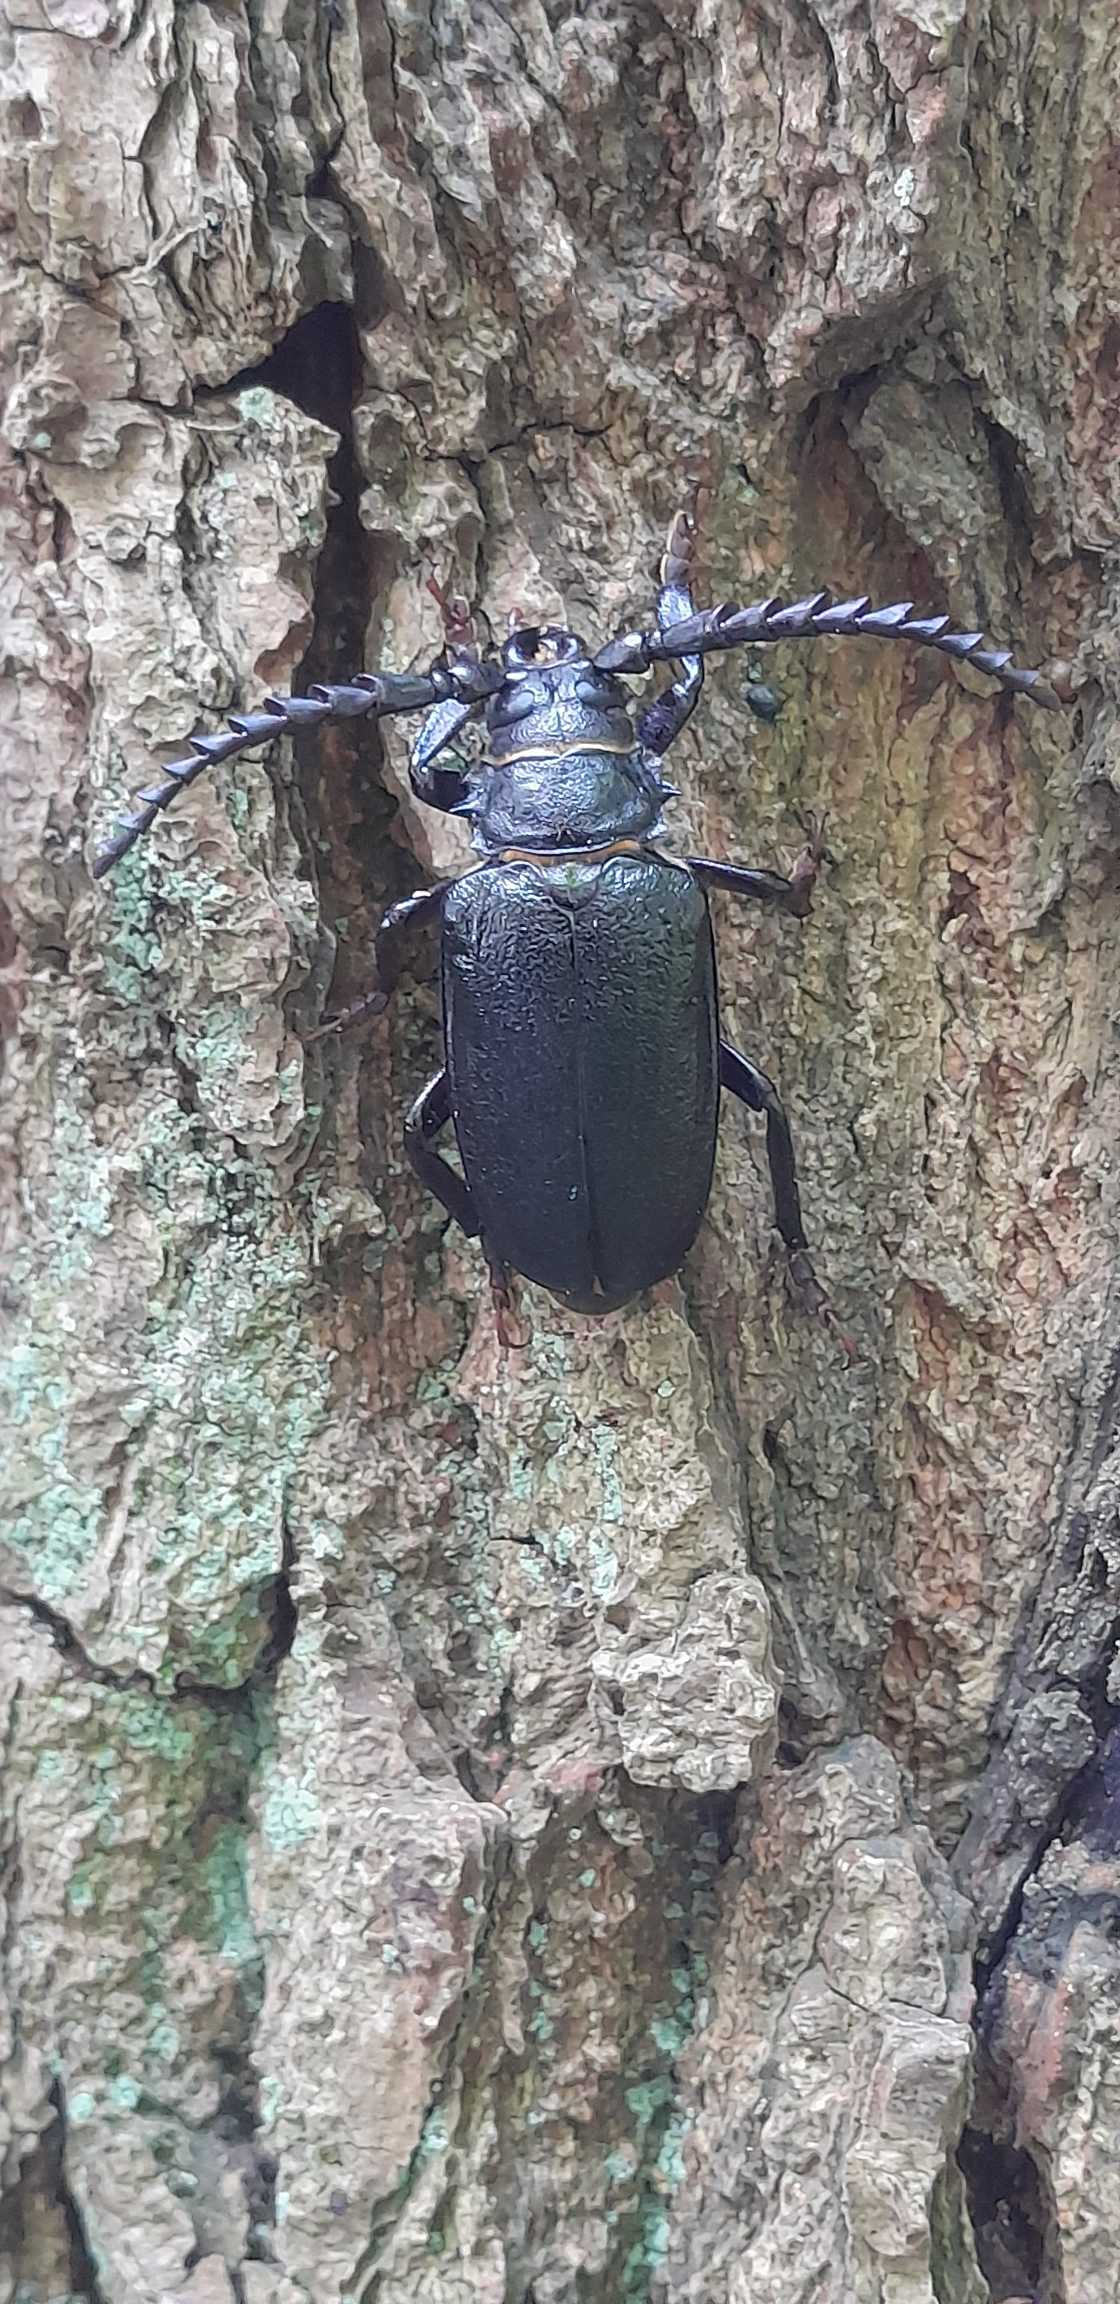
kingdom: Animalia
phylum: Arthropoda
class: Insecta
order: Coleoptera
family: Cerambycidae
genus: Prionus
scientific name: Prionus coriarius
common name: Garver
